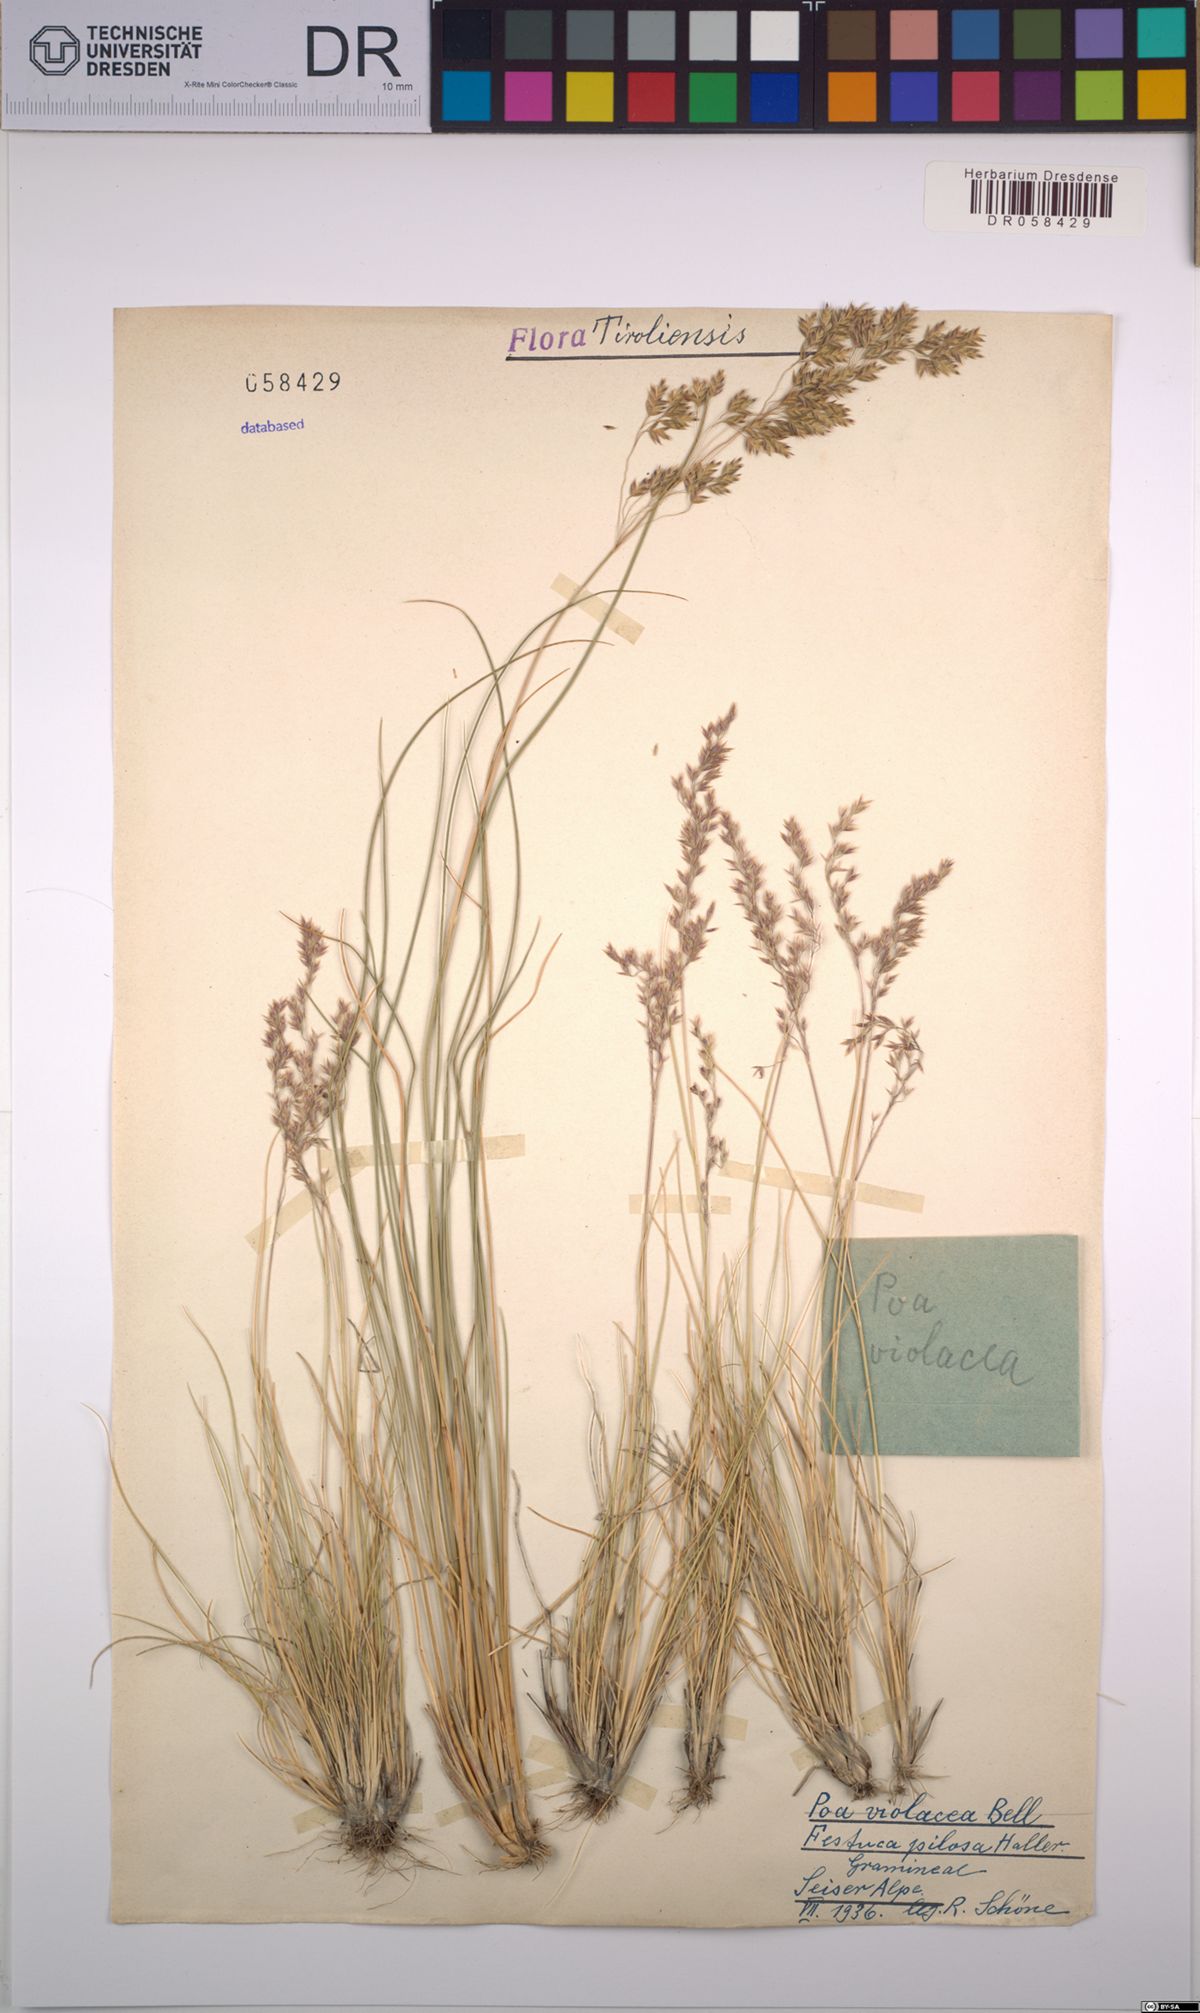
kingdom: Plantae
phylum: Tracheophyta
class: Liliopsida
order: Poales
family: Poaceae
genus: Bellardiochloa
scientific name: Bellardiochloa variegata
